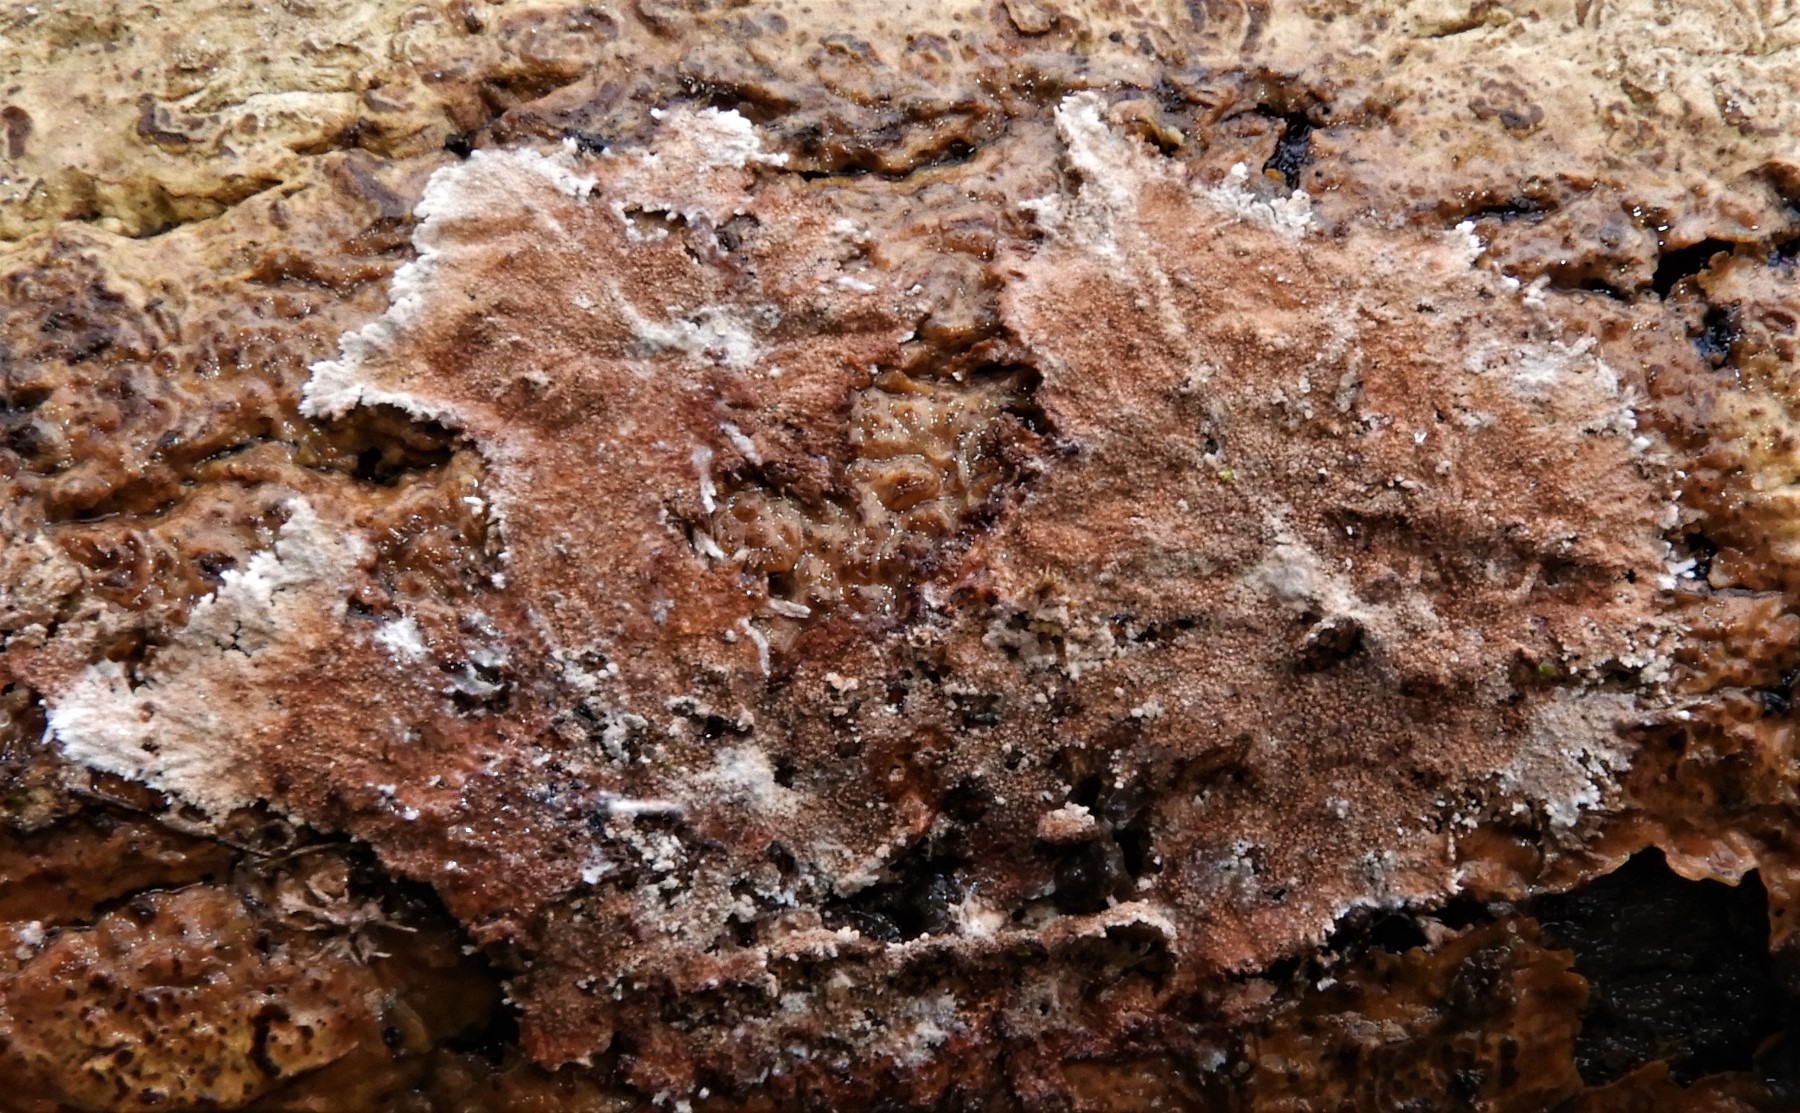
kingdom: Fungi
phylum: Basidiomycota
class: Agaricomycetes
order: Polyporales
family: Steccherinaceae
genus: Steccherinum
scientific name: Steccherinum fimbriatum
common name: trådet skønpig
